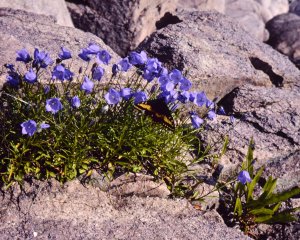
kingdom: Animalia
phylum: Arthropoda
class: Insecta
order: Lepidoptera
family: Papilionidae
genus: Papilio
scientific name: Papilio brevicauda
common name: Short-tailed Swallowtail
